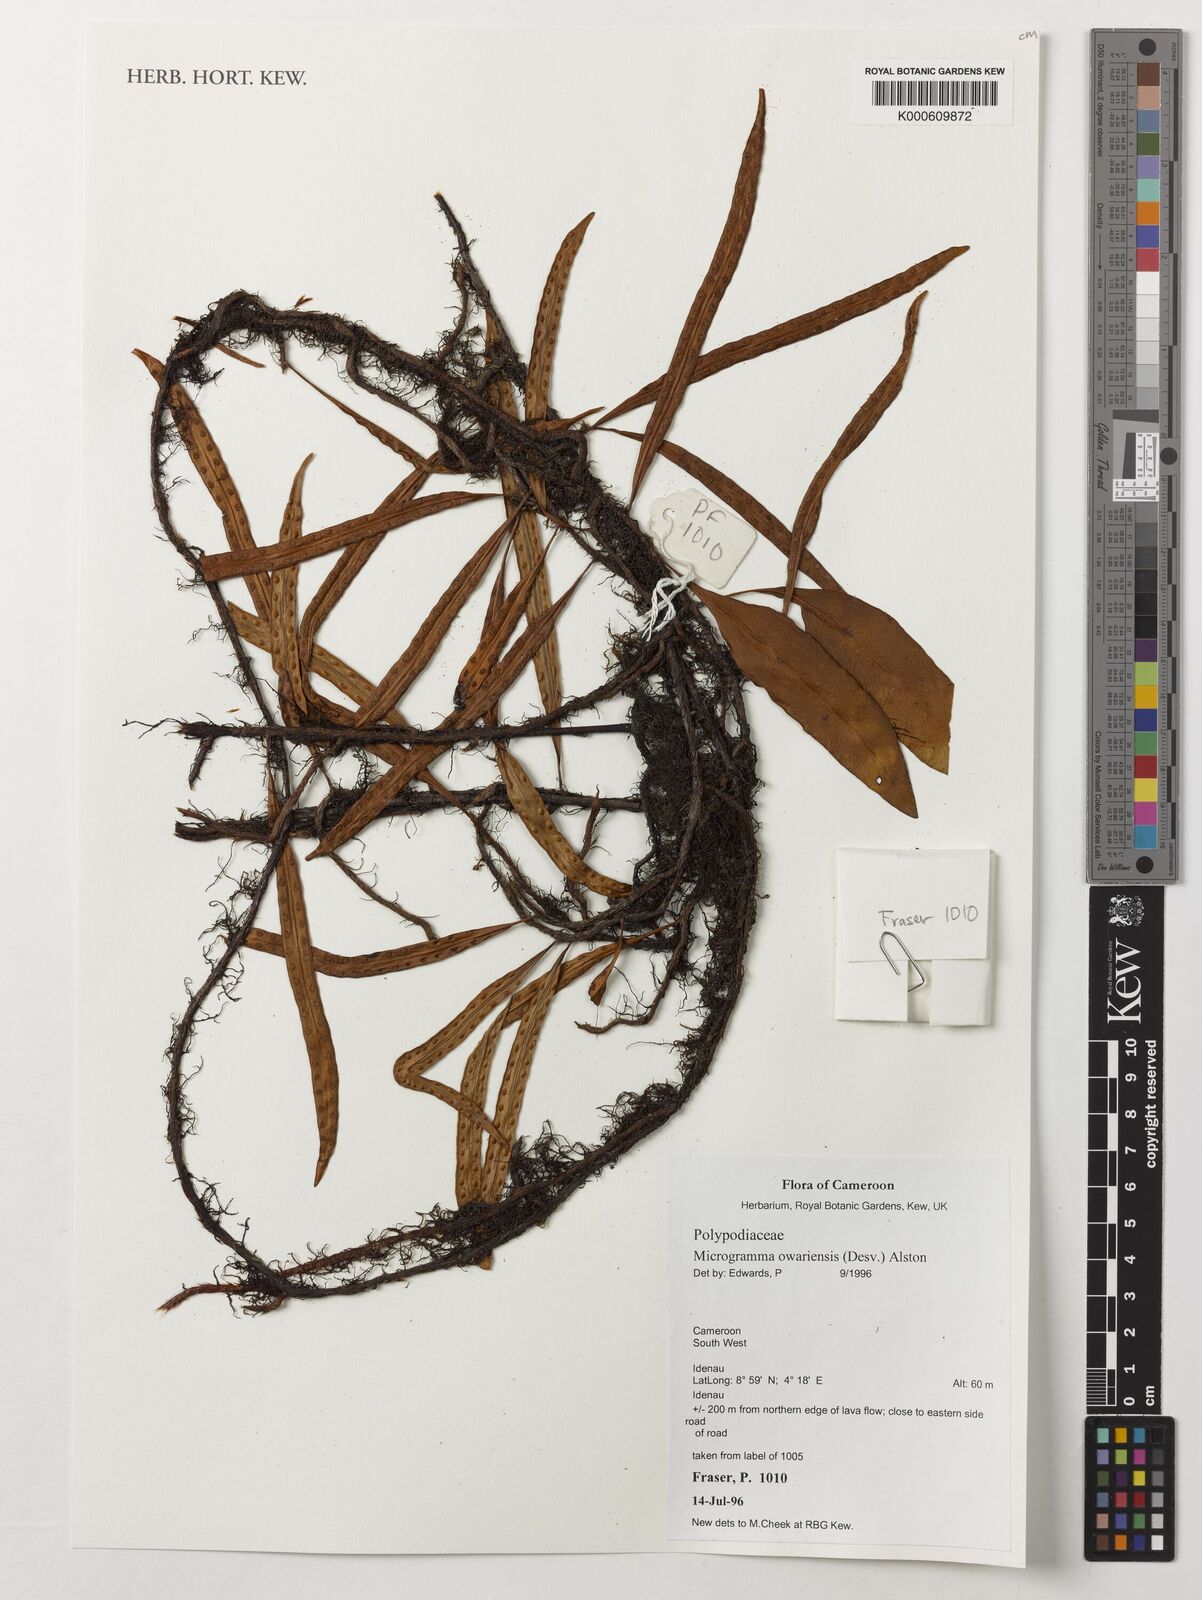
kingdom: Plantae
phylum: Tracheophyta
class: Polypodiopsida
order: Polypodiales
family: Polypodiaceae
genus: Microgramma
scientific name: Microgramma mauritiana
